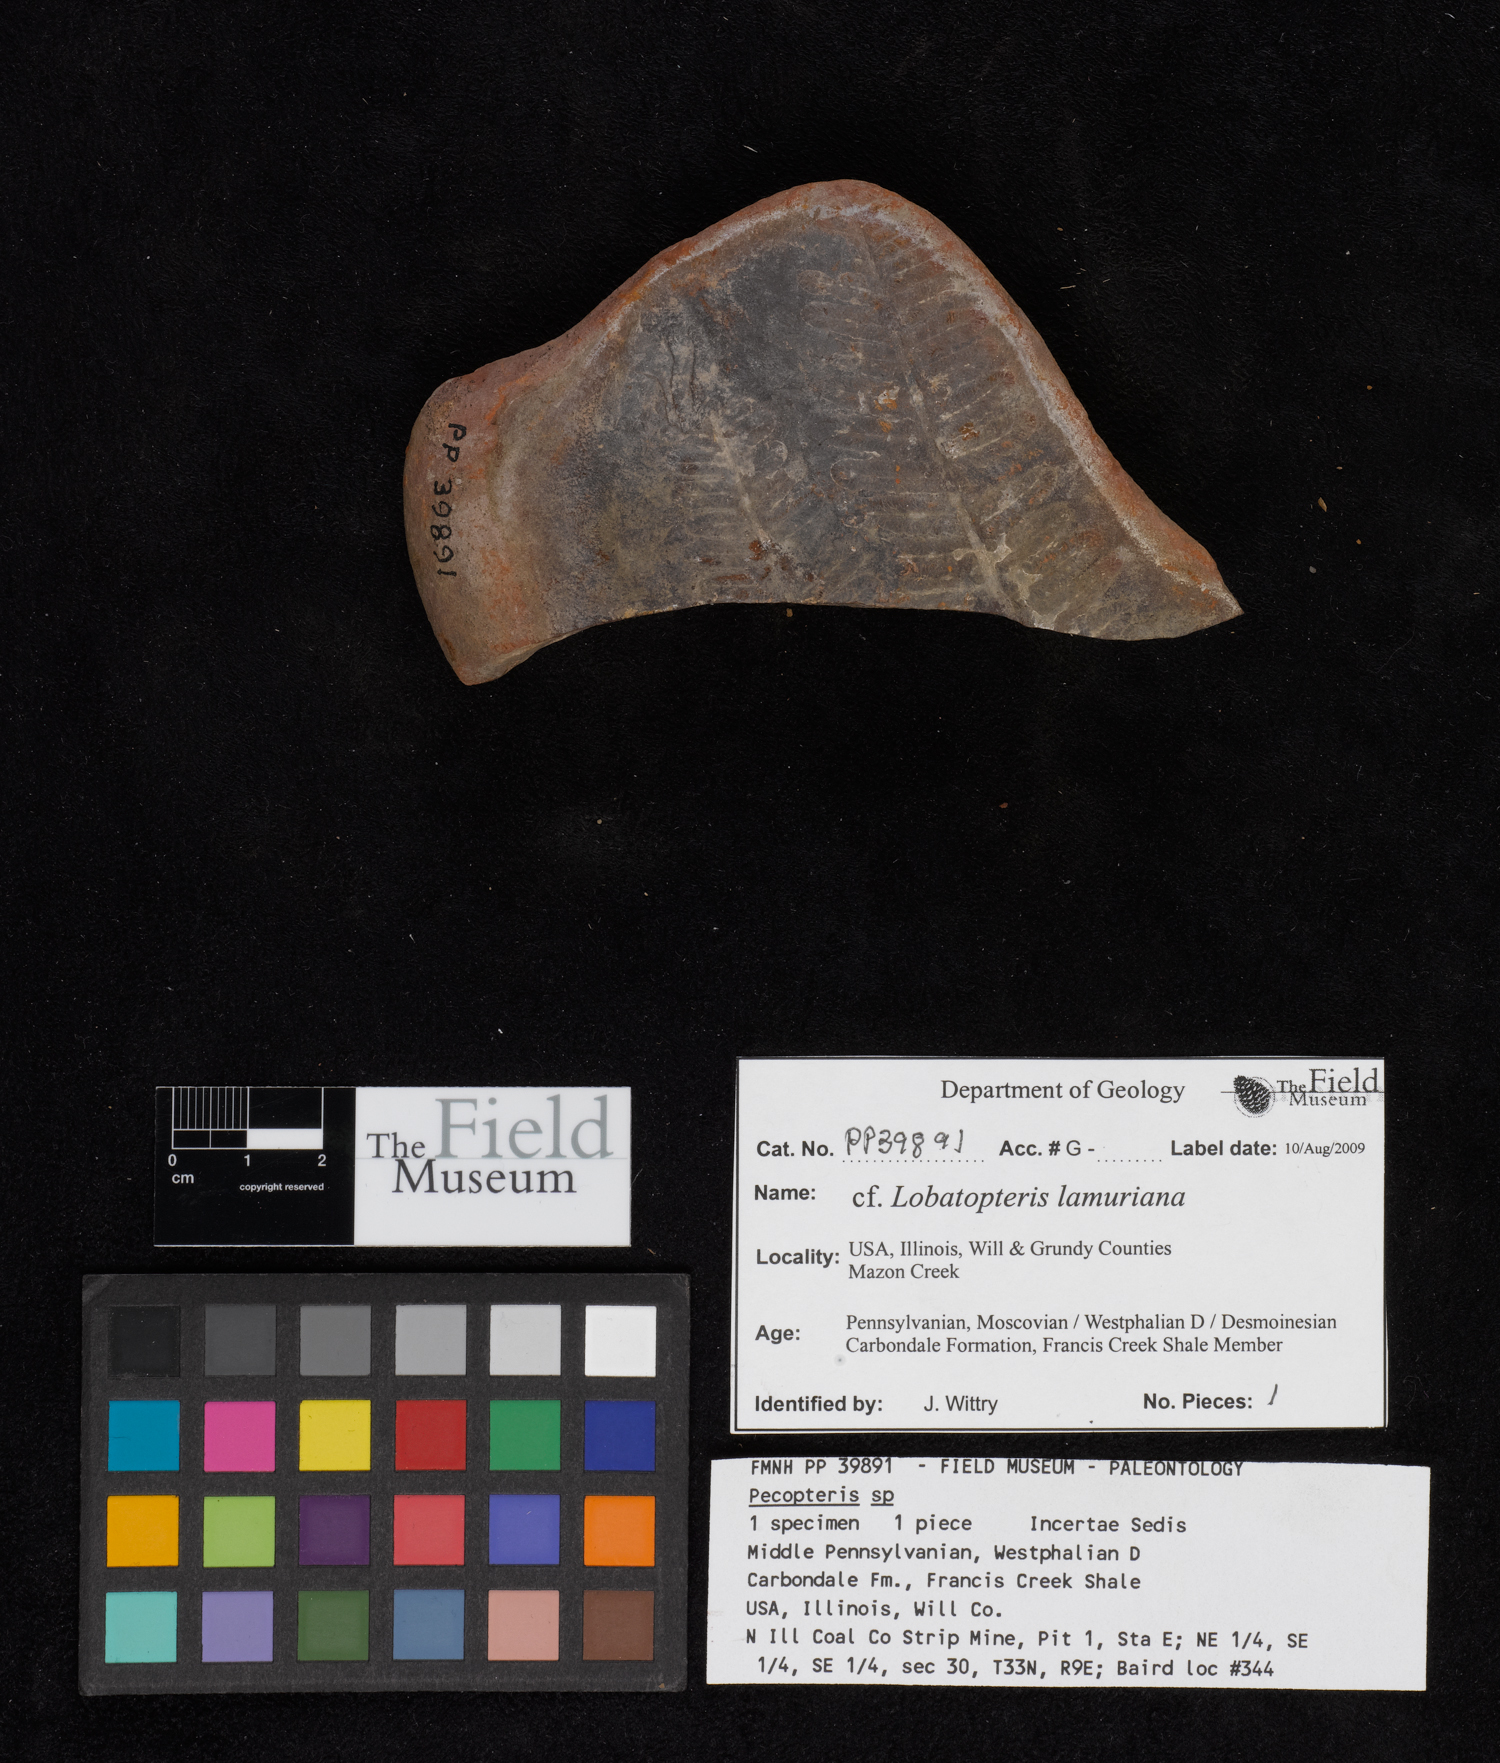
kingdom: Plantae
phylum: Tracheophyta
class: Polypodiopsida
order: Marattiales
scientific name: Marattiales
